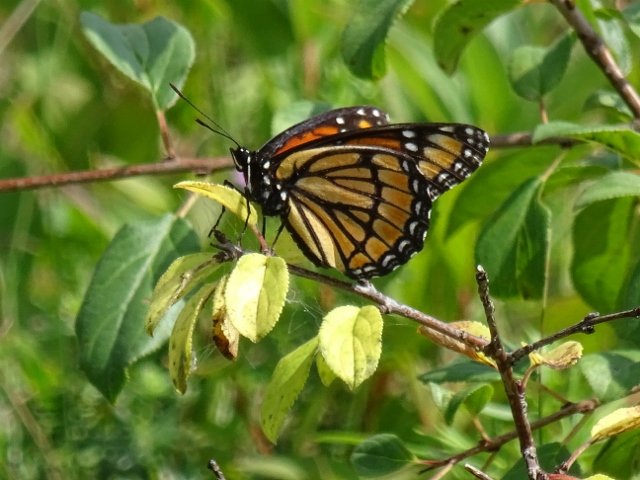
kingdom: Animalia
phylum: Arthropoda
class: Insecta
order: Lepidoptera
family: Nymphalidae
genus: Limenitis
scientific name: Limenitis archippus
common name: Viceroy
